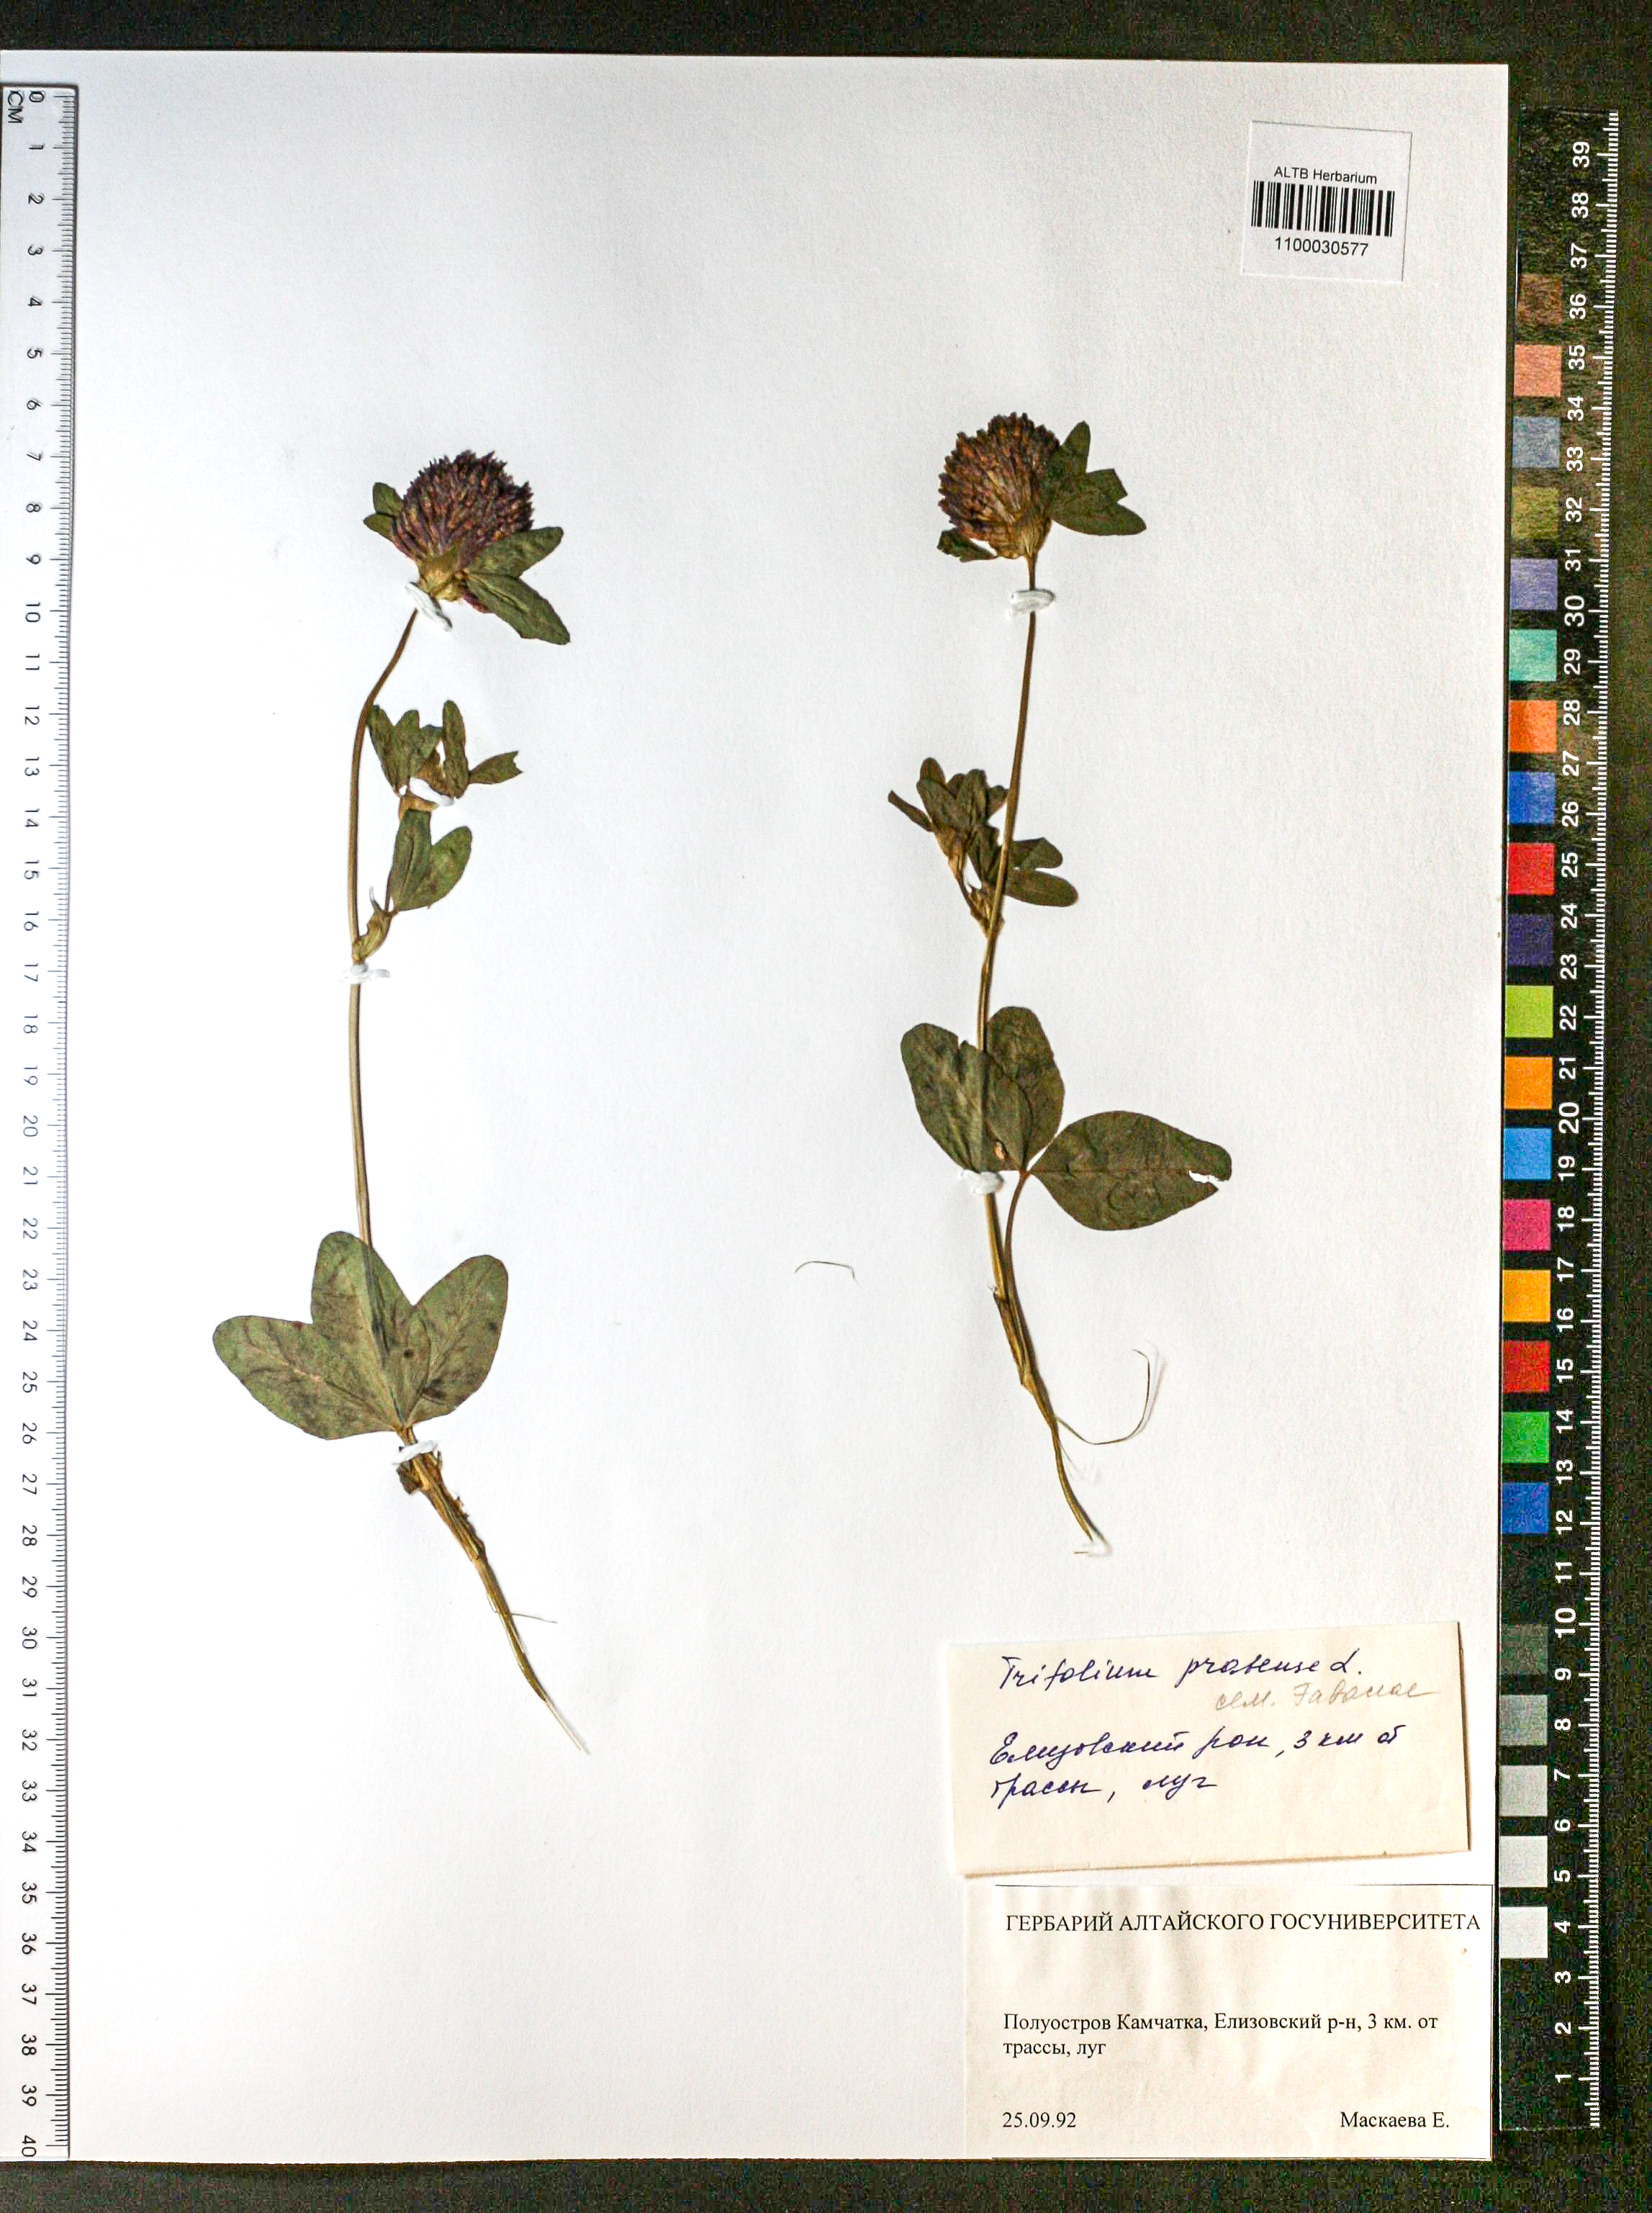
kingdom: Plantae
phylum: Tracheophyta
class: Magnoliopsida
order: Fabales
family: Fabaceae
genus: Trifolium
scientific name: Trifolium pratense
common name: Red clover
